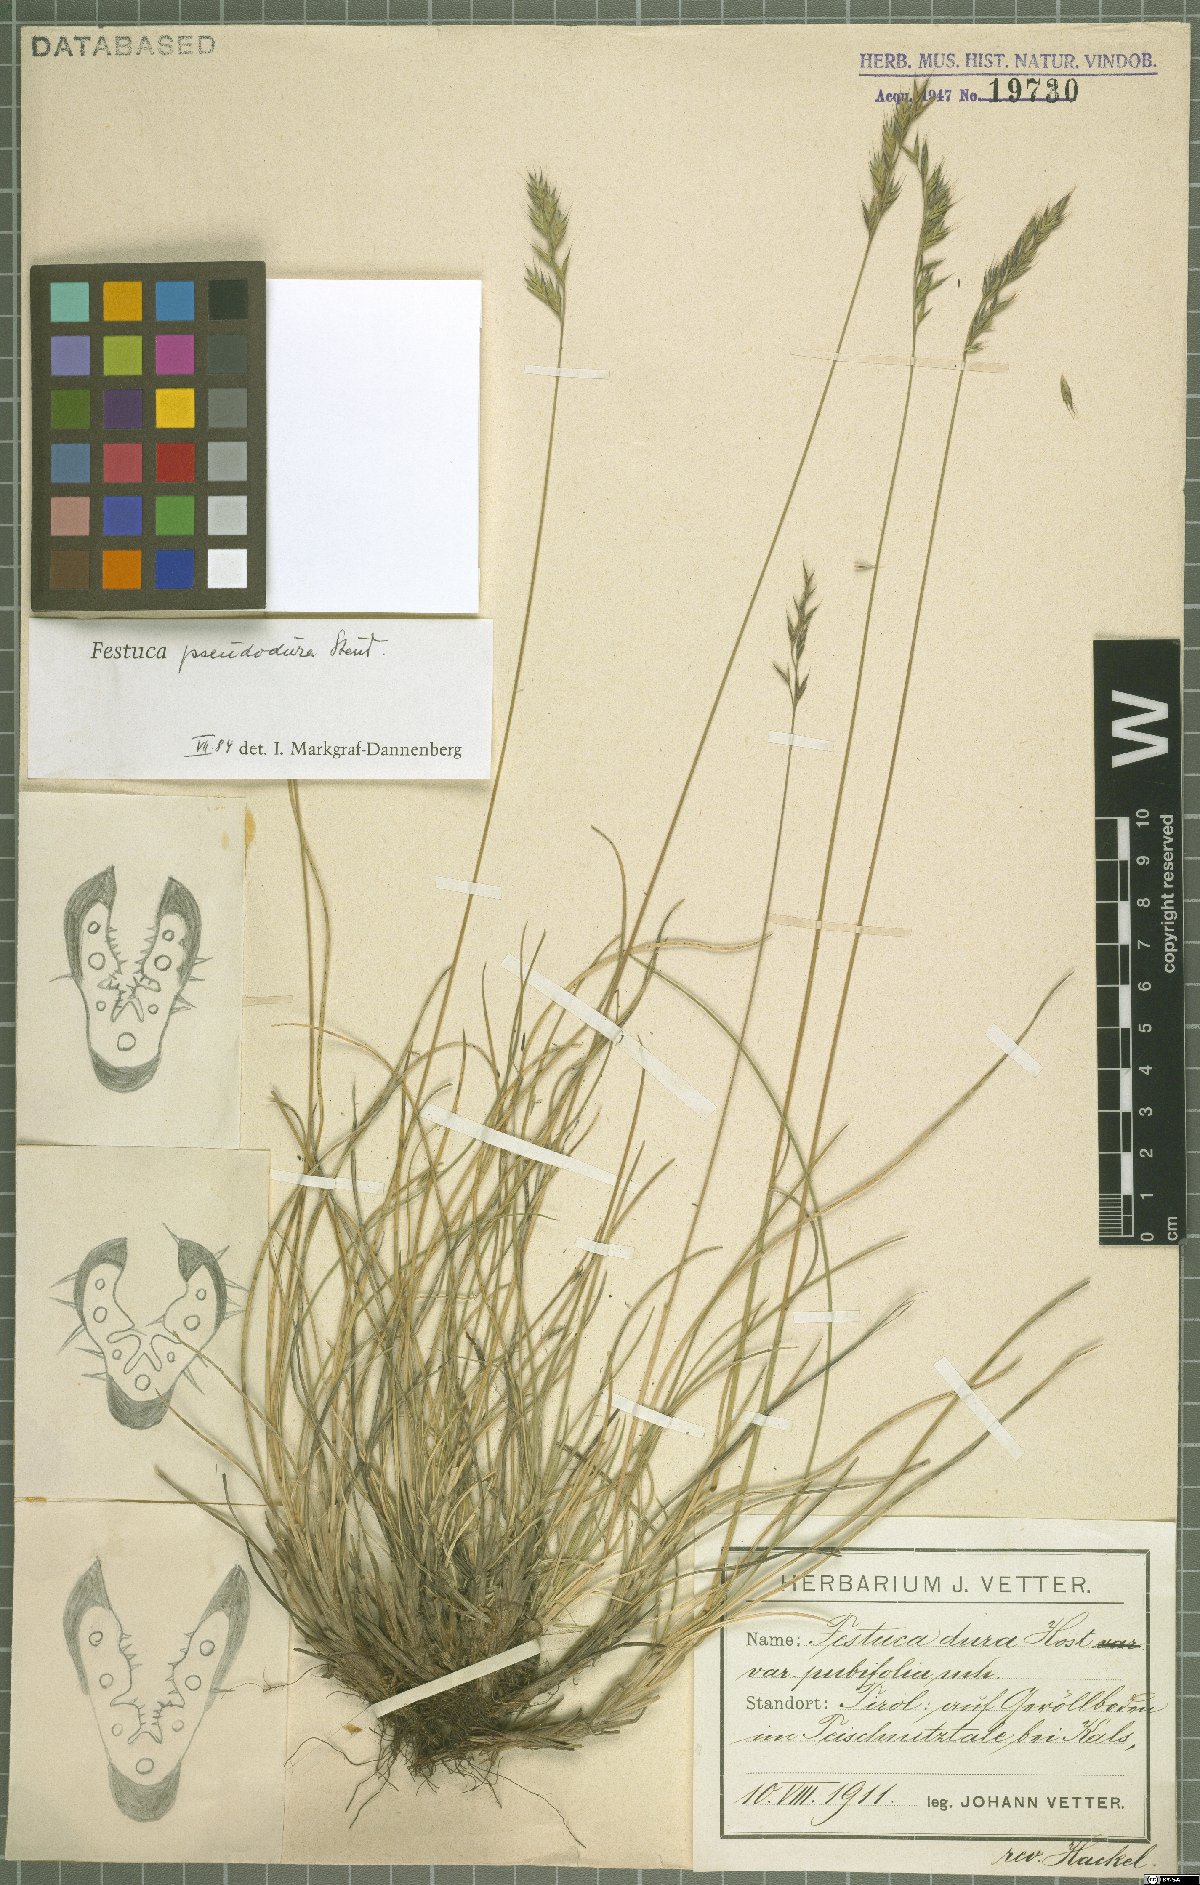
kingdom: Plantae
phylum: Tracheophyta
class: Liliopsida
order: Poales
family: Poaceae
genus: Festuca
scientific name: Festuca pseudodura
